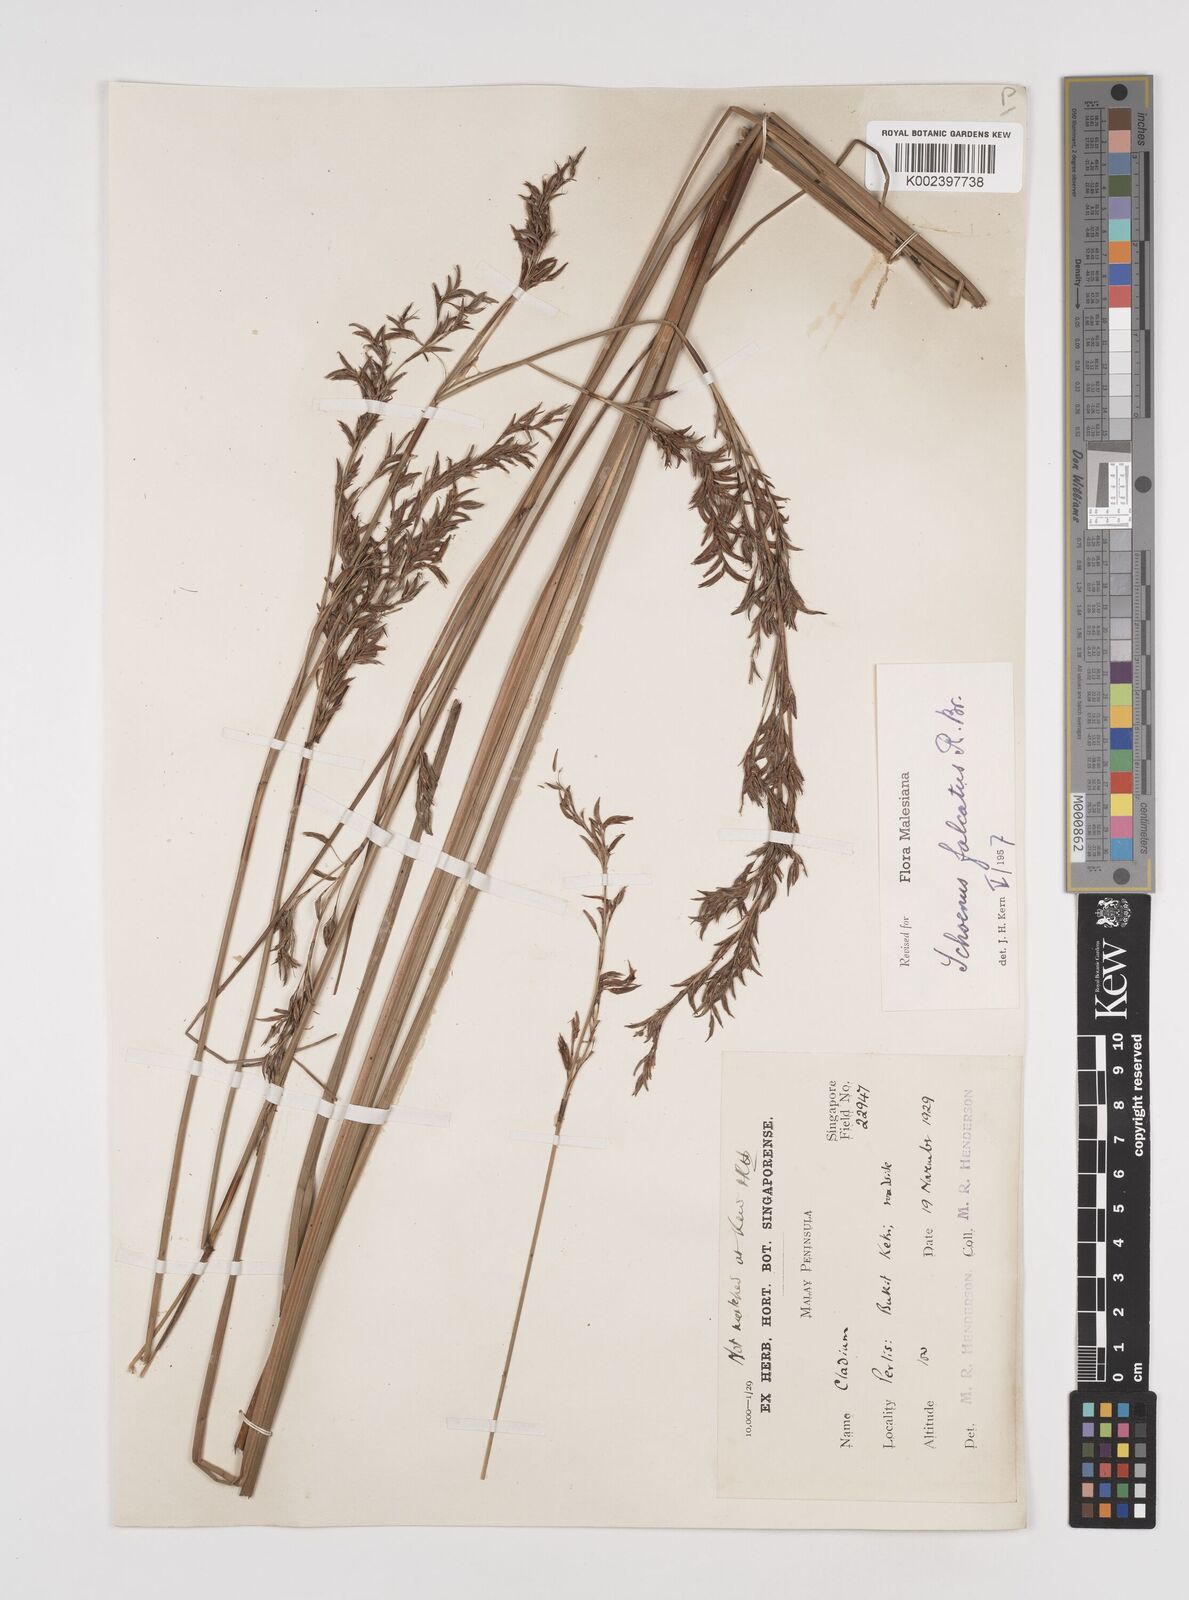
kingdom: Plantae
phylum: Tracheophyta
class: Liliopsida
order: Poales
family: Cyperaceae
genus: Schoenus
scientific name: Schoenus falcatus
